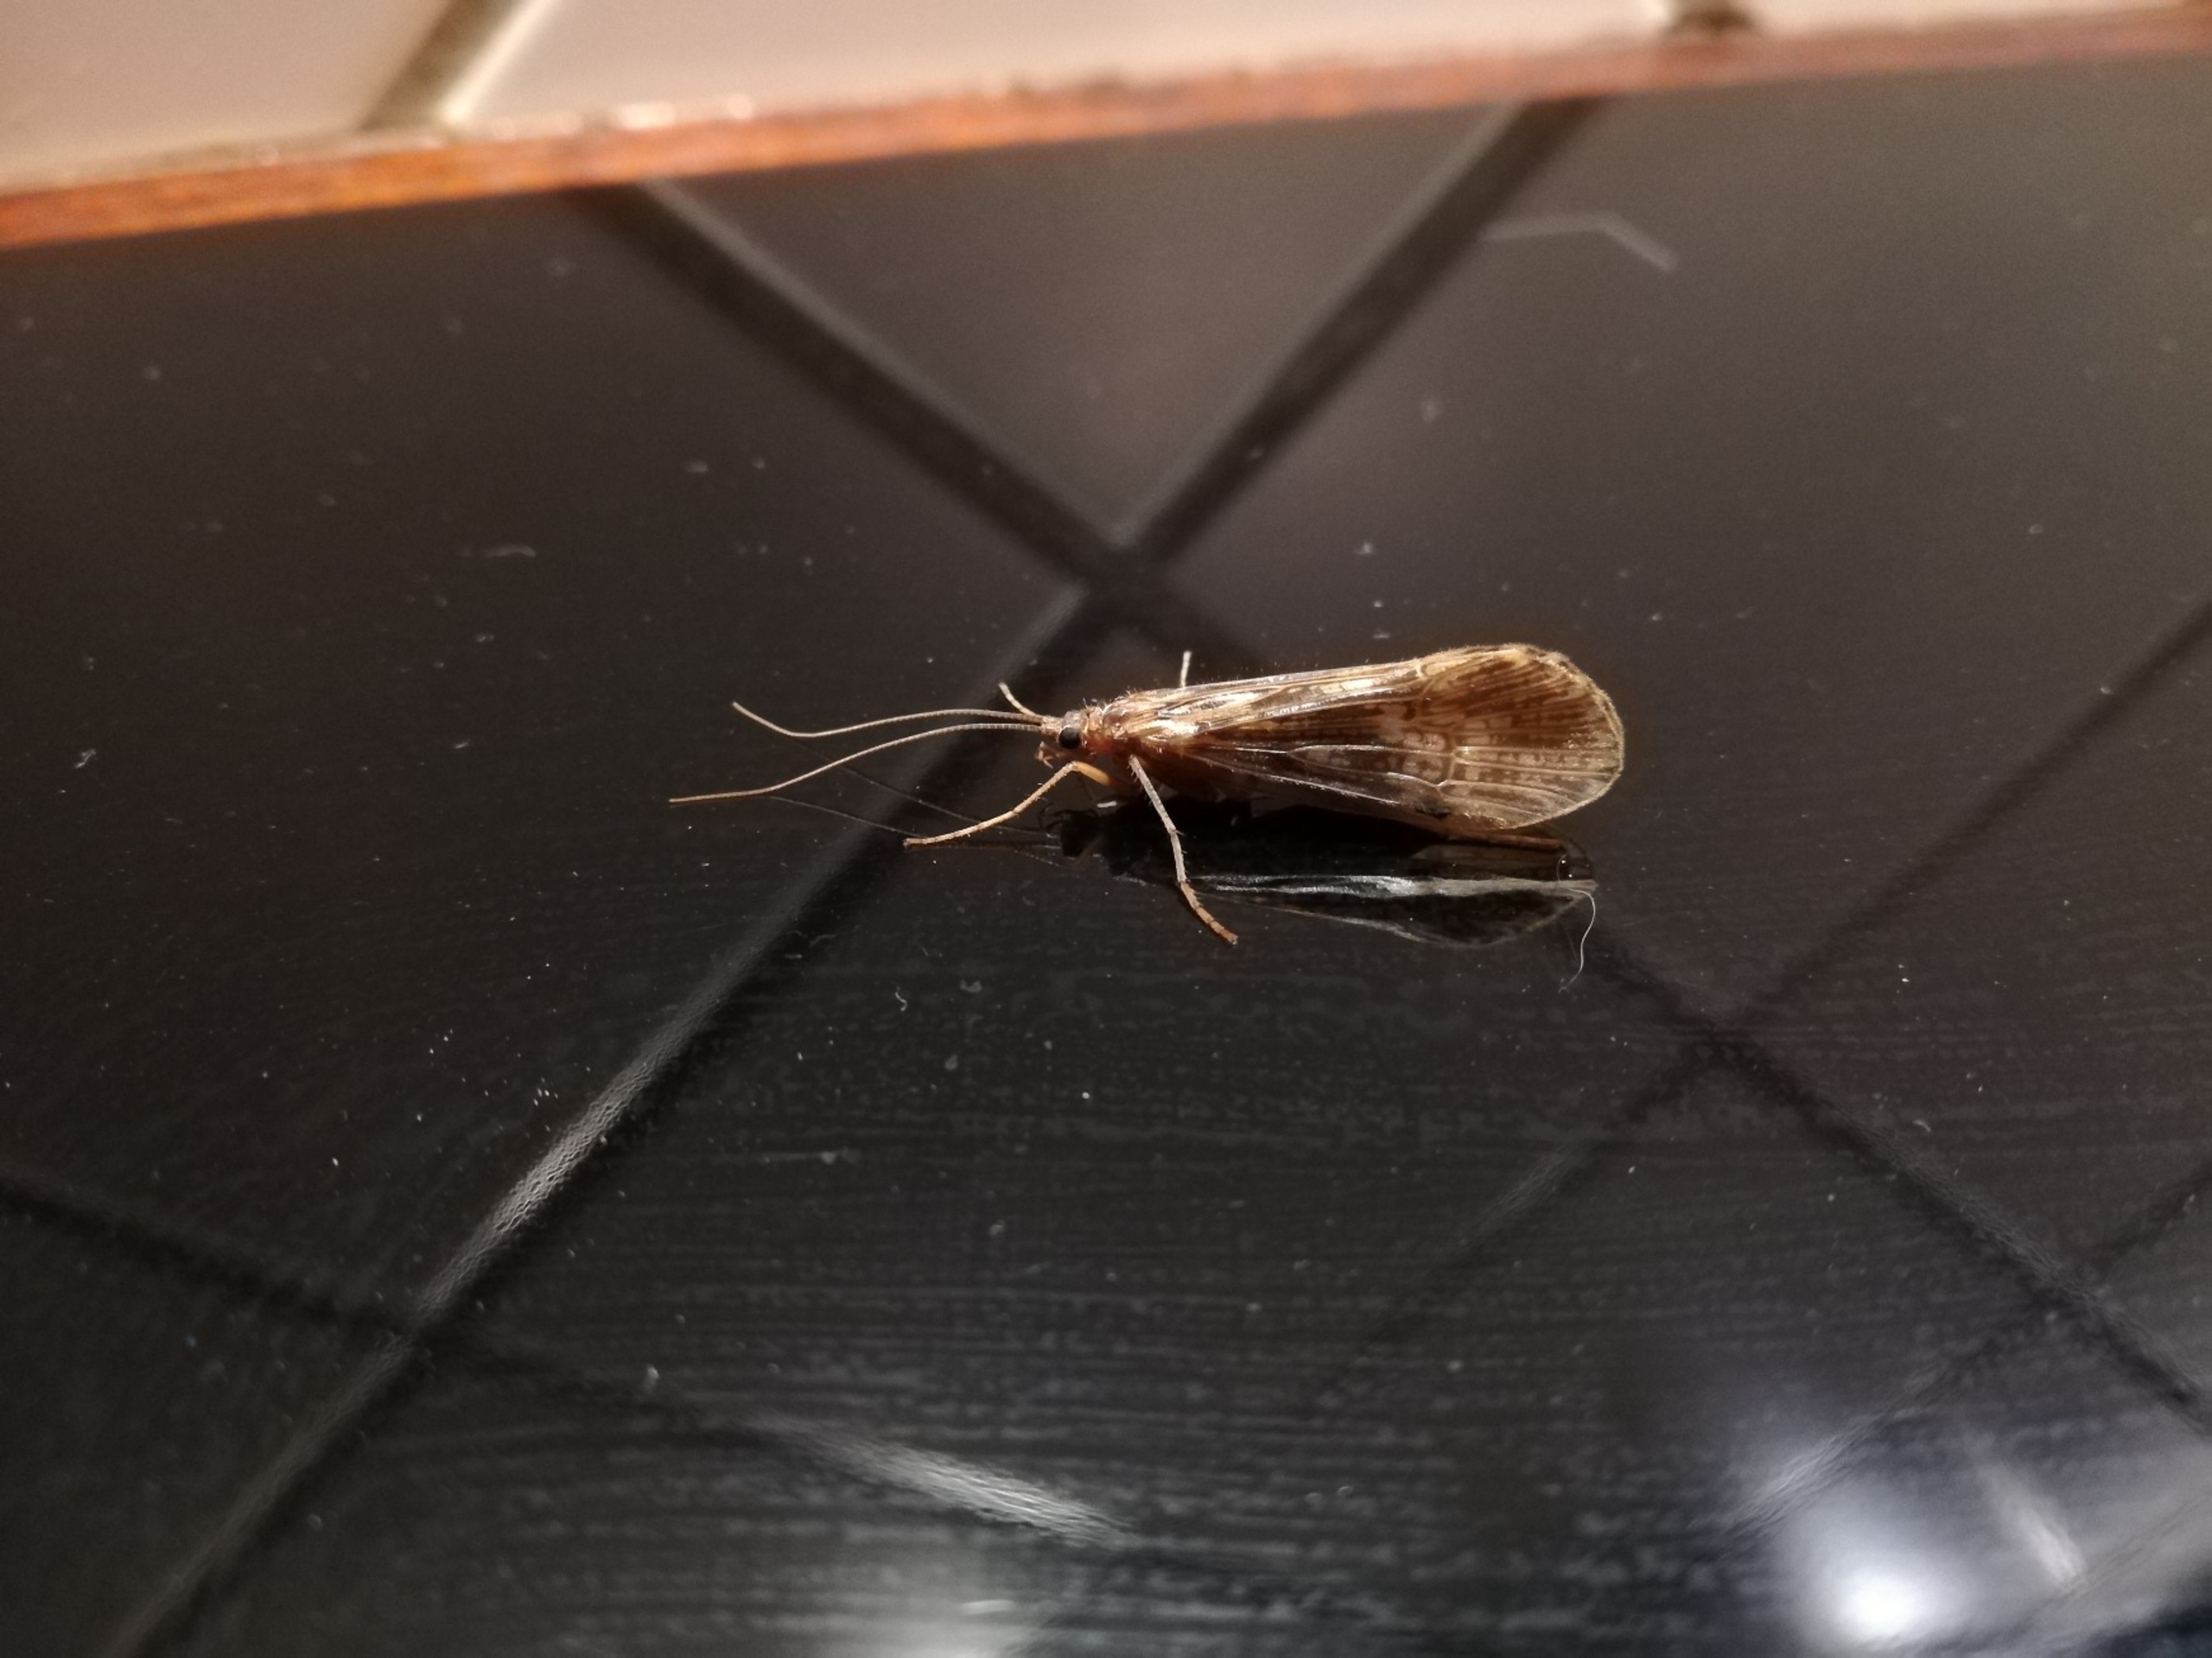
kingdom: Animalia
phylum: Arthropoda
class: Insecta
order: Trichoptera
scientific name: Trichoptera
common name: Vårfluer
